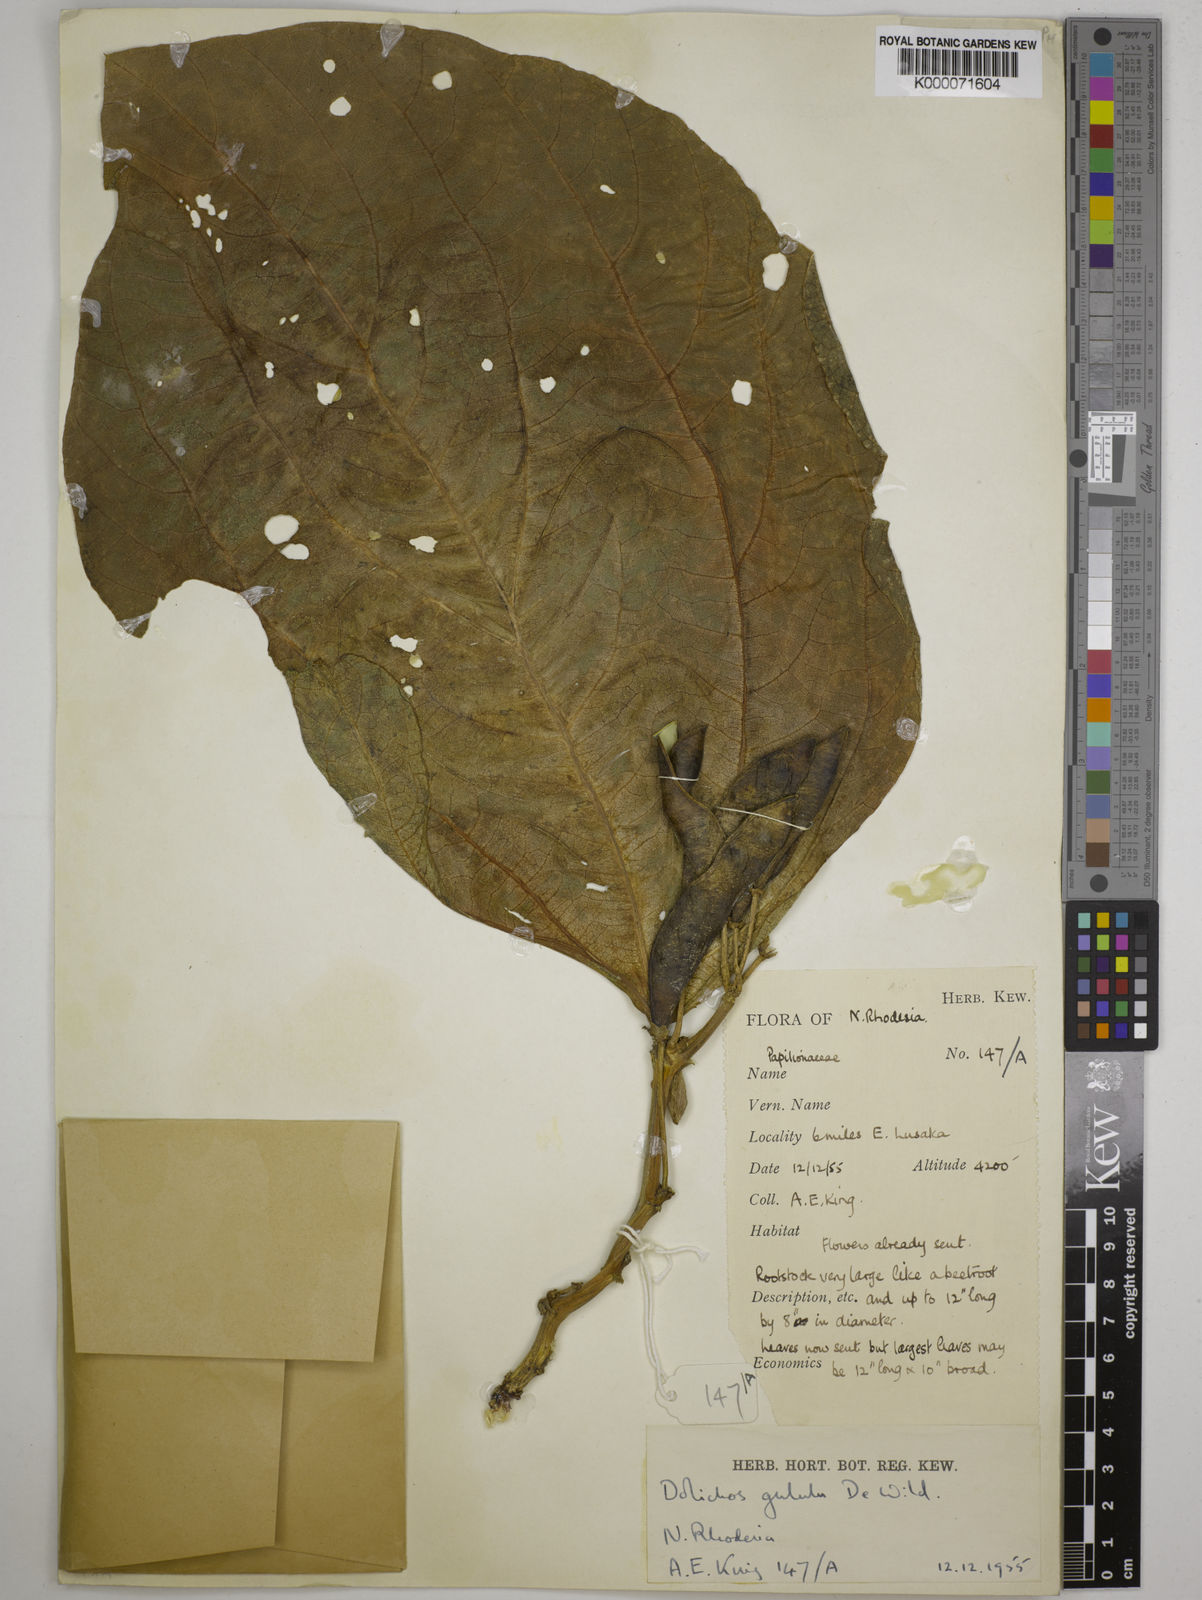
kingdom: Plantae
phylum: Tracheophyta
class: Magnoliopsida
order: Fabales
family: Fabaceae
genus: Dolichos
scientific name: Dolichos gululu
